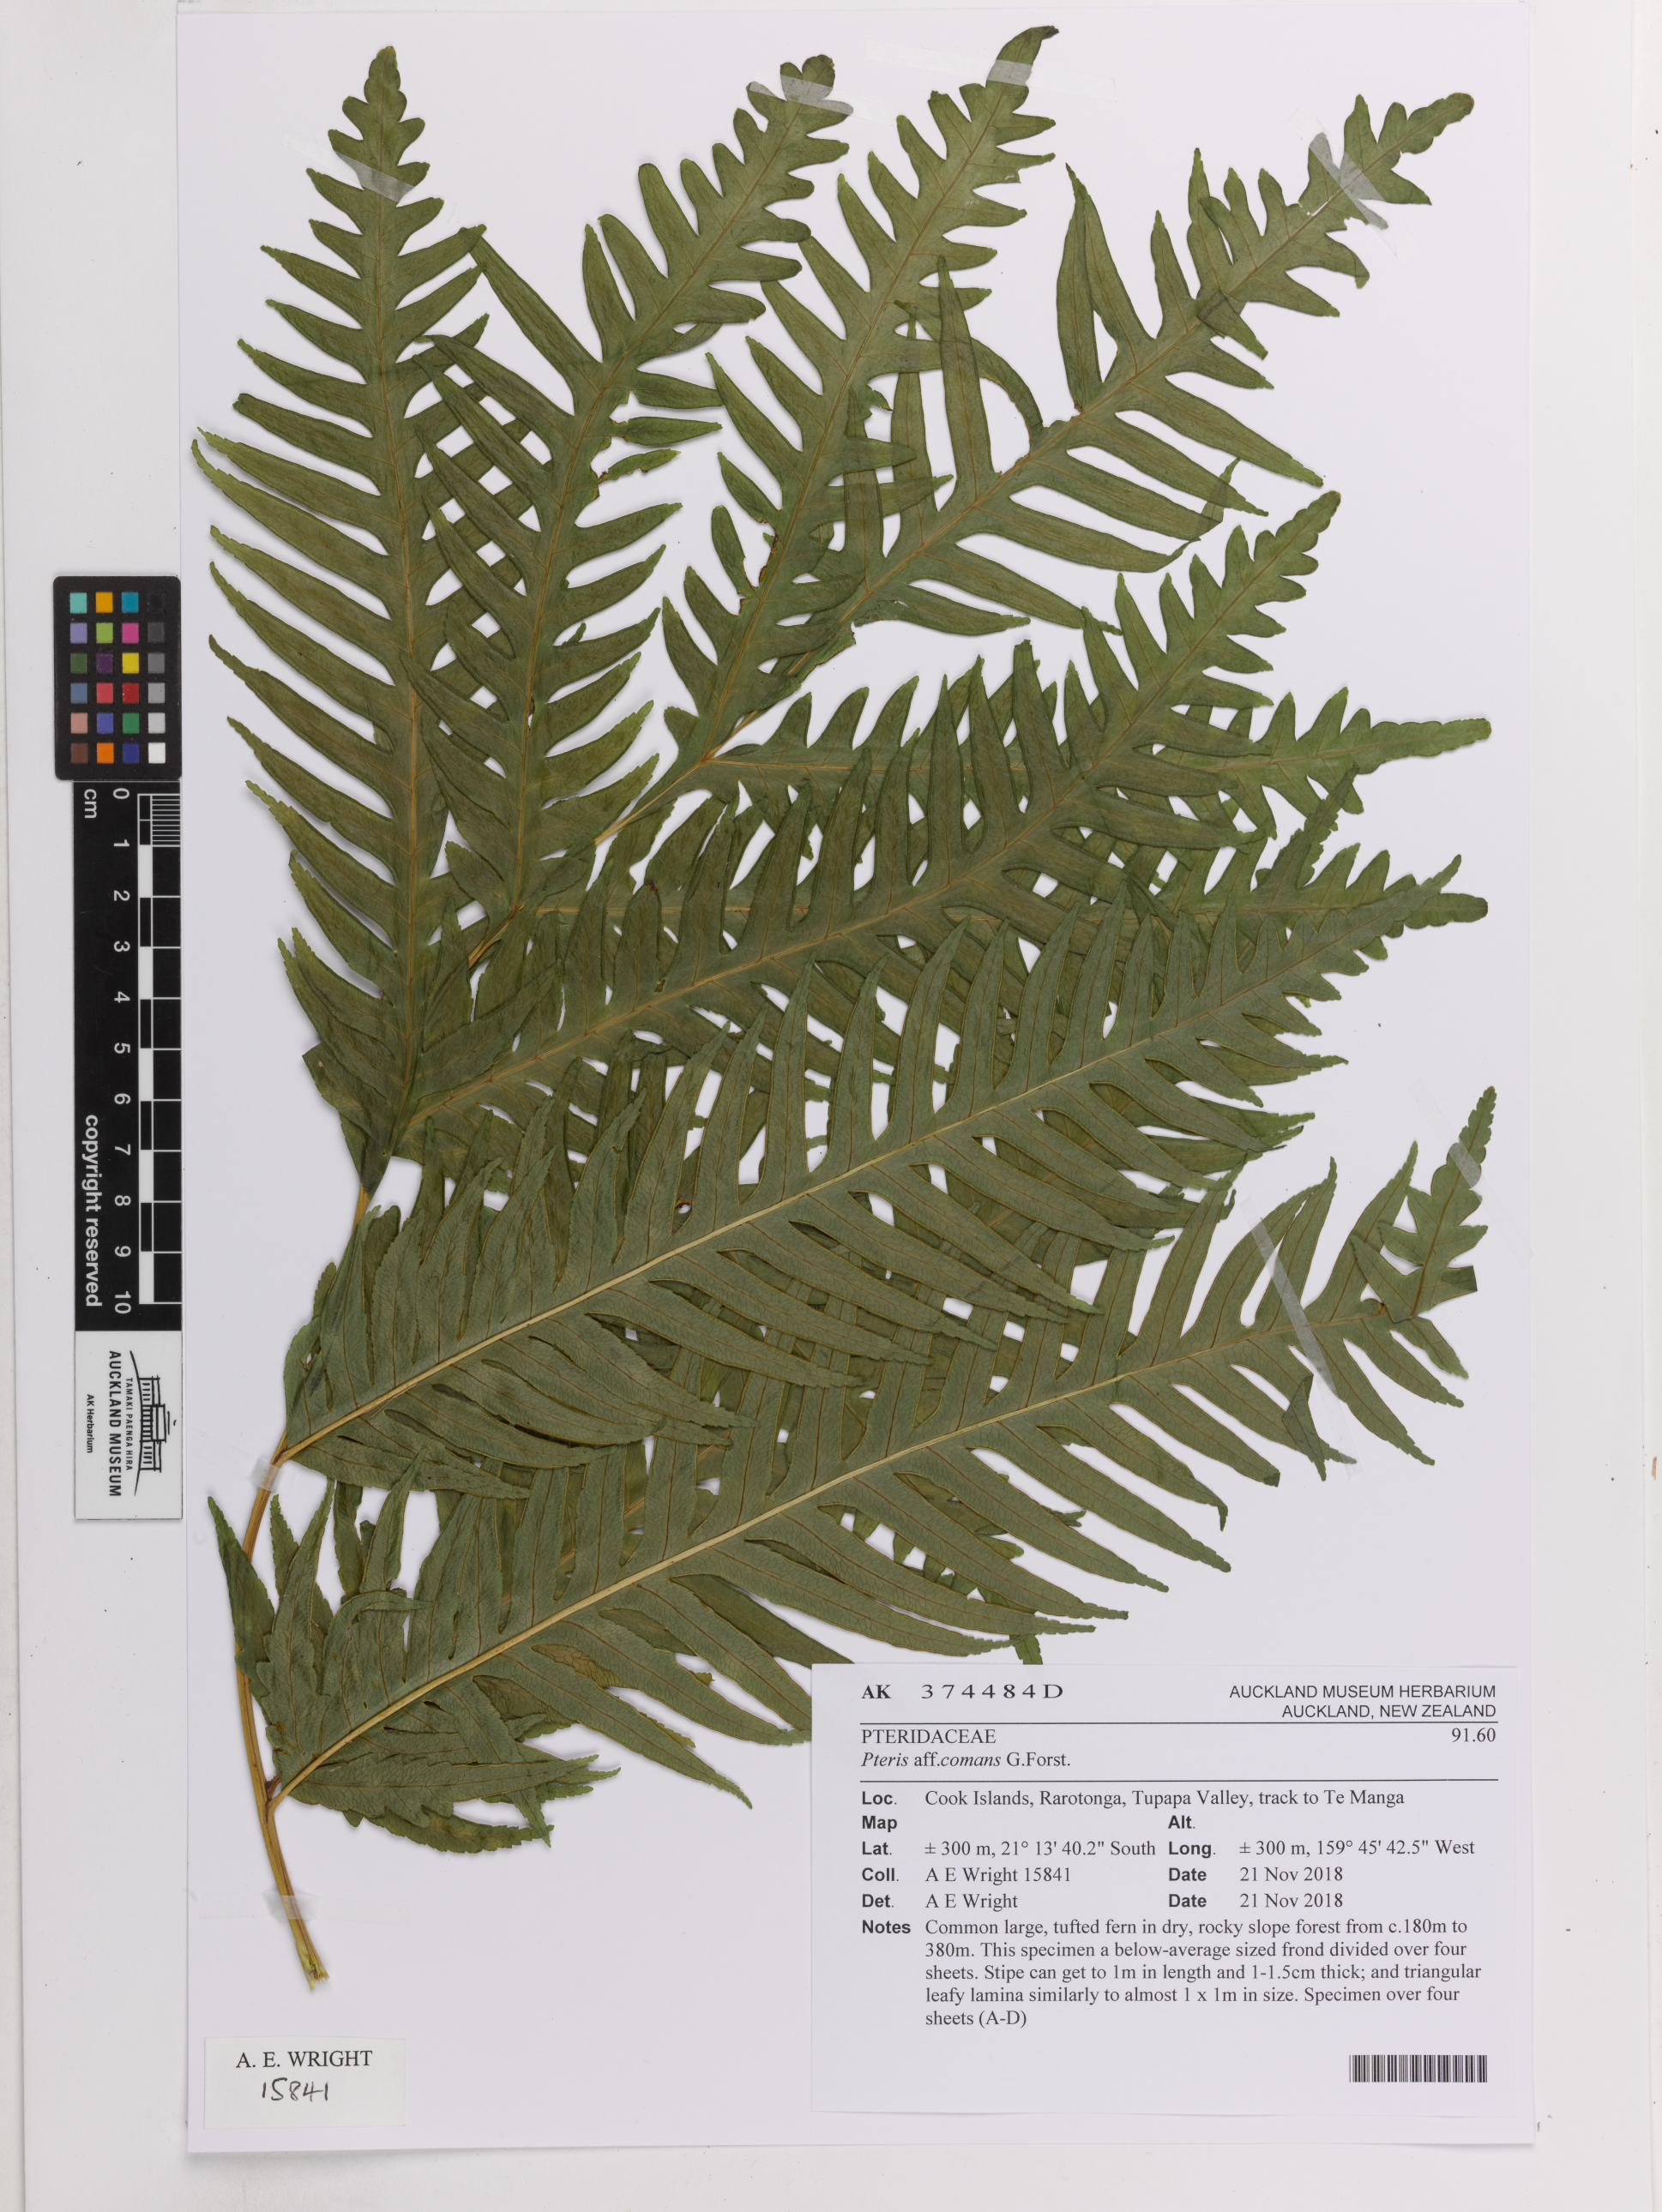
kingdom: Plantae
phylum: Tracheophyta
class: Polypodiopsida
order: Polypodiales
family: Pteridaceae
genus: Pteris
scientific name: Pteris comans
